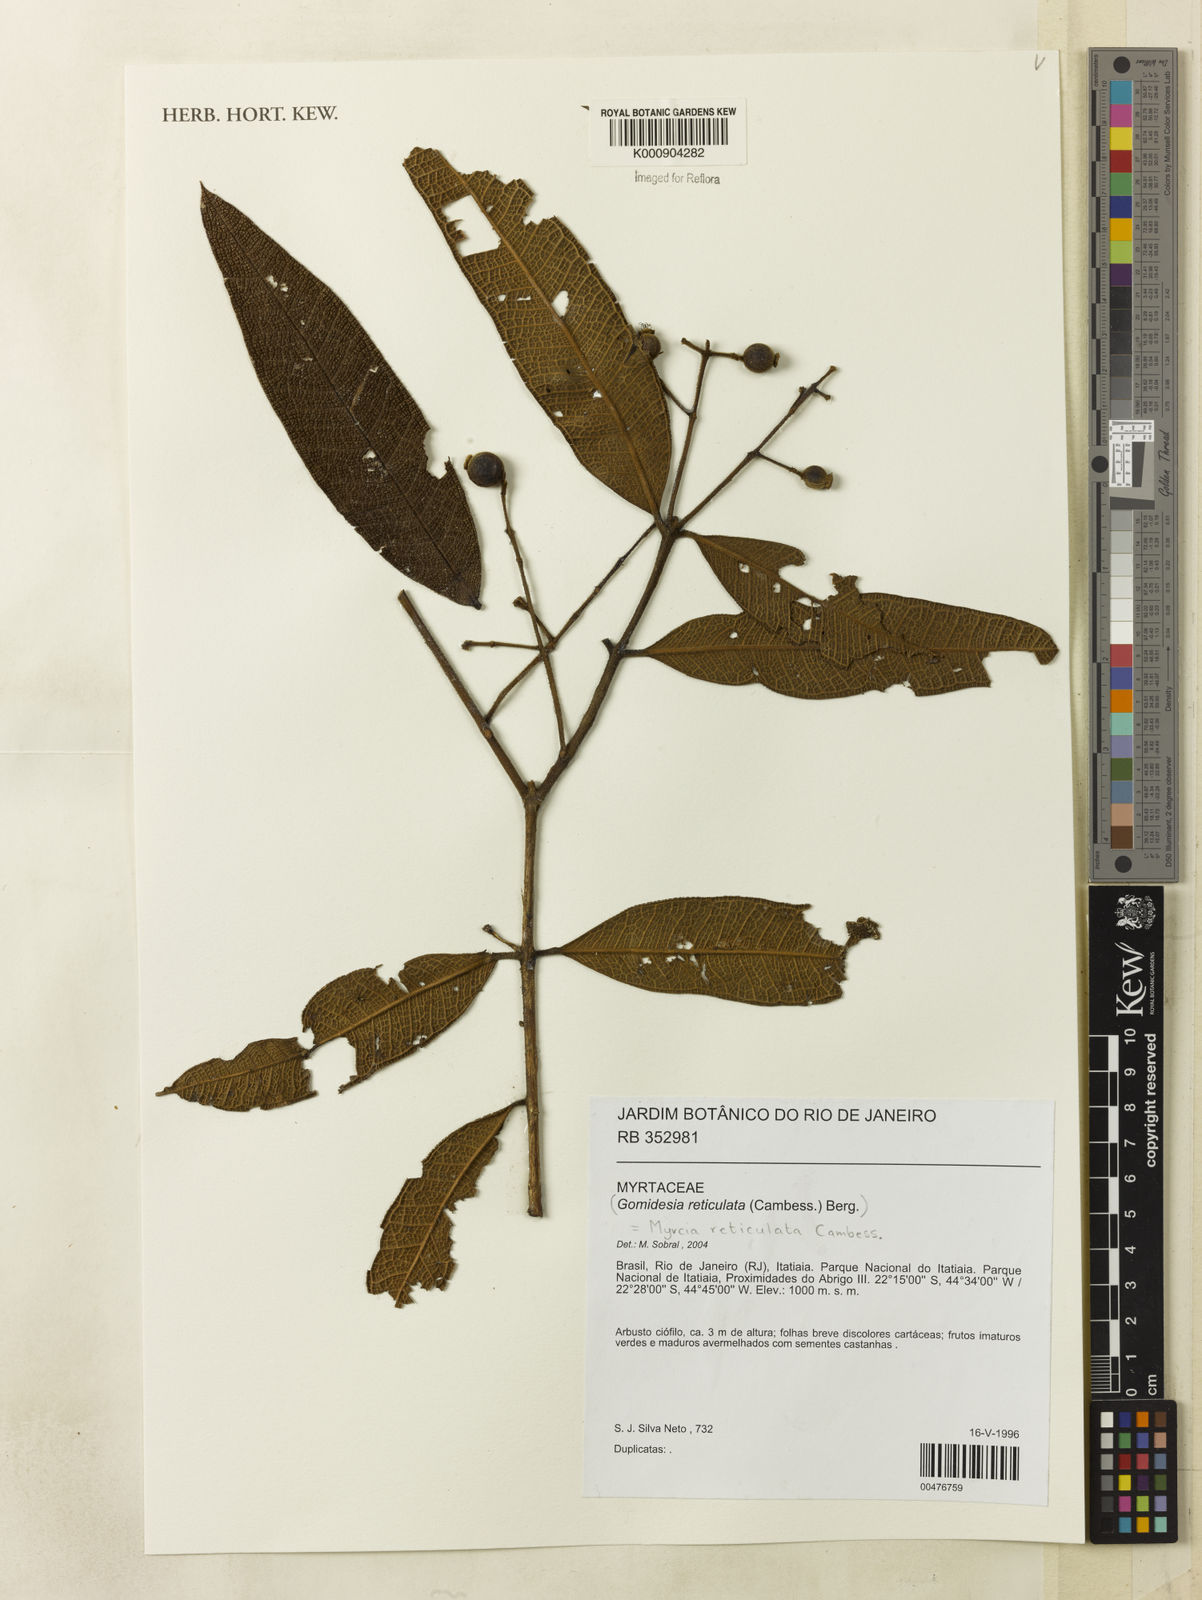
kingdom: Plantae
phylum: Tracheophyta
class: Magnoliopsida
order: Myrtales
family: Myrtaceae
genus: Myrcia
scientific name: Myrcia reticulata
